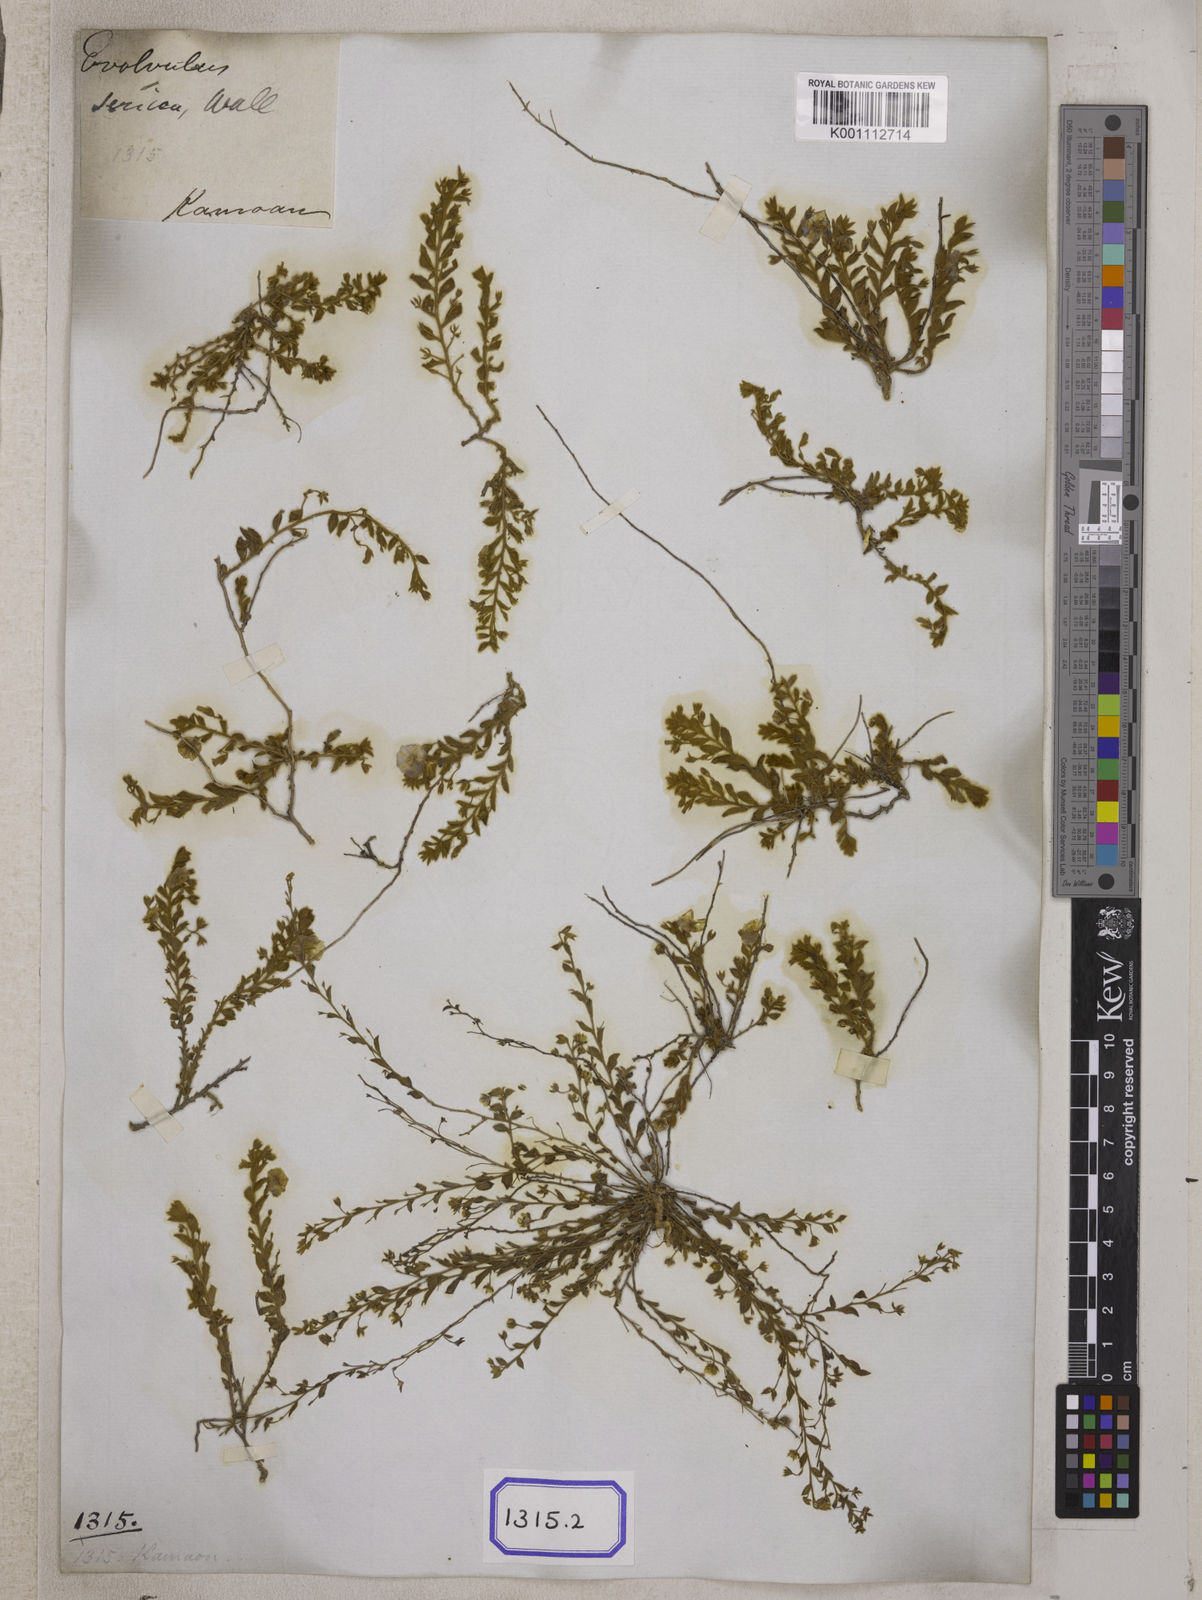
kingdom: Plantae
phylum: Tracheophyta
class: Magnoliopsida
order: Solanales
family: Convolvulaceae
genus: Evolvulus
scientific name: Evolvulus
